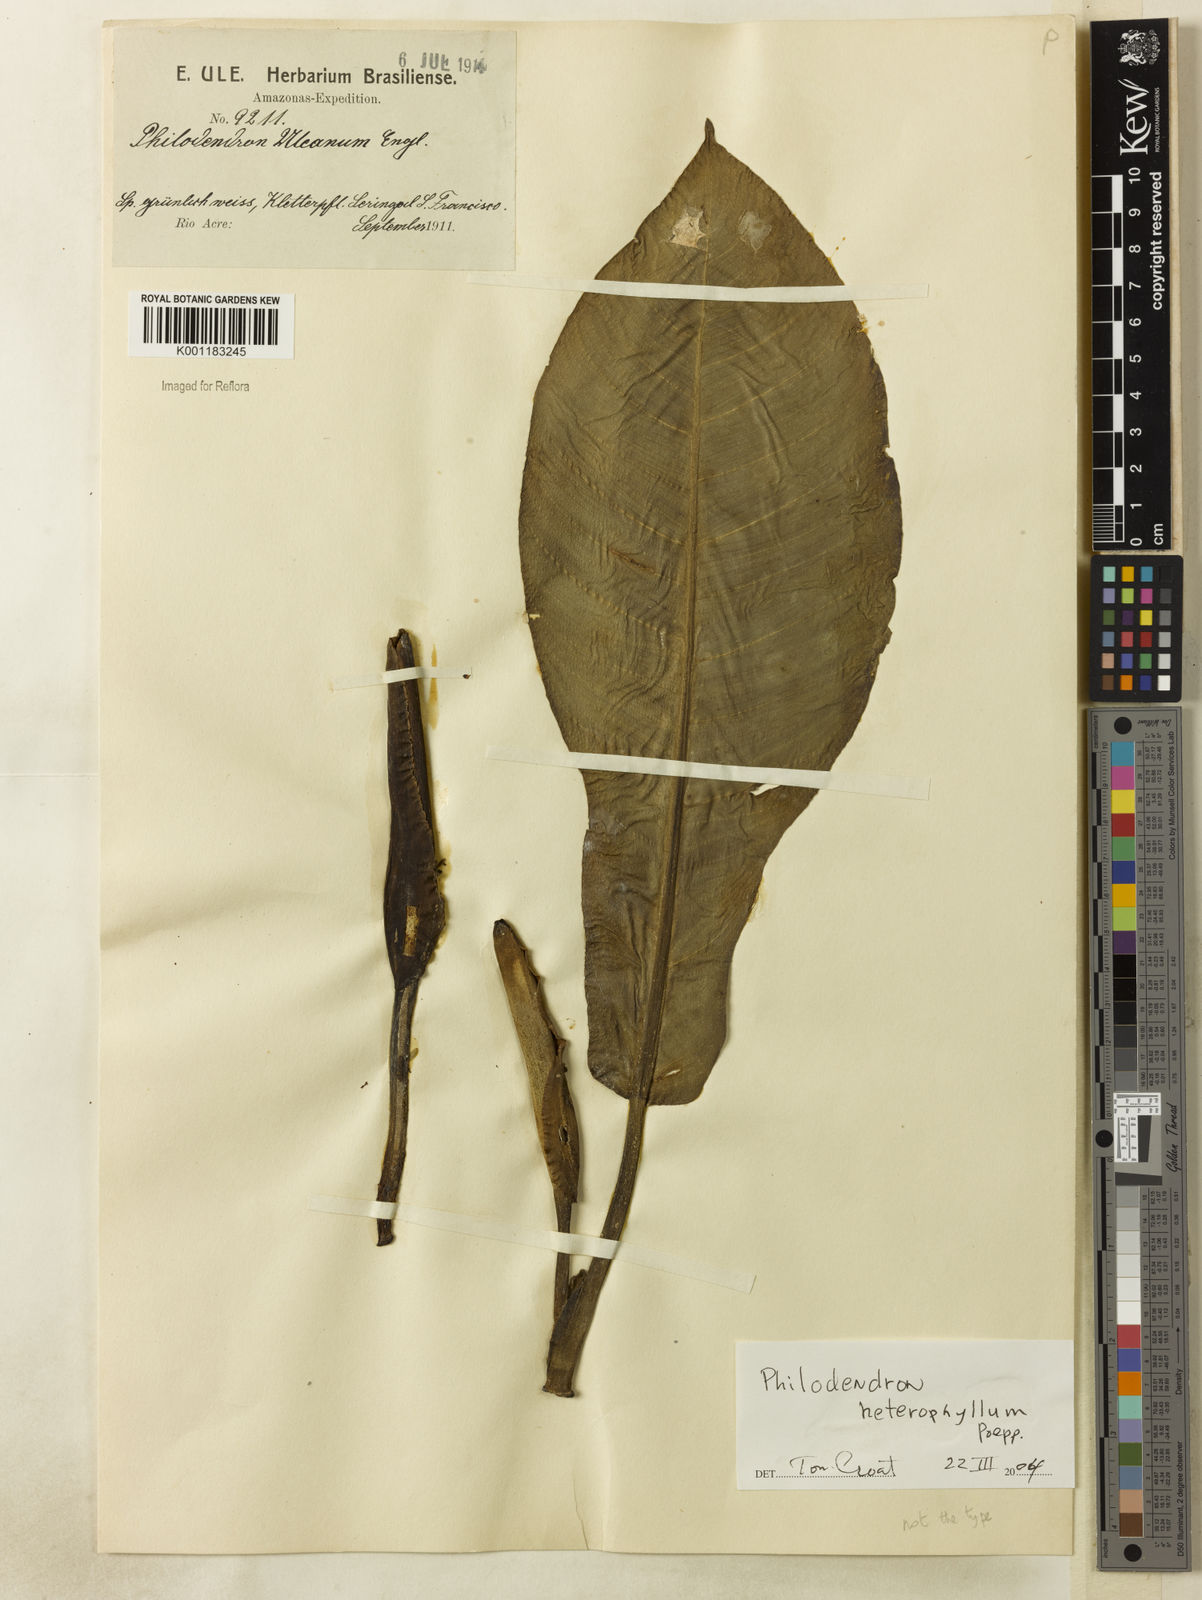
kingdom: Plantae
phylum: Tracheophyta
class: Liliopsida
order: Alismatales
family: Araceae
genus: Philodendron
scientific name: Philodendron heterophyllum
